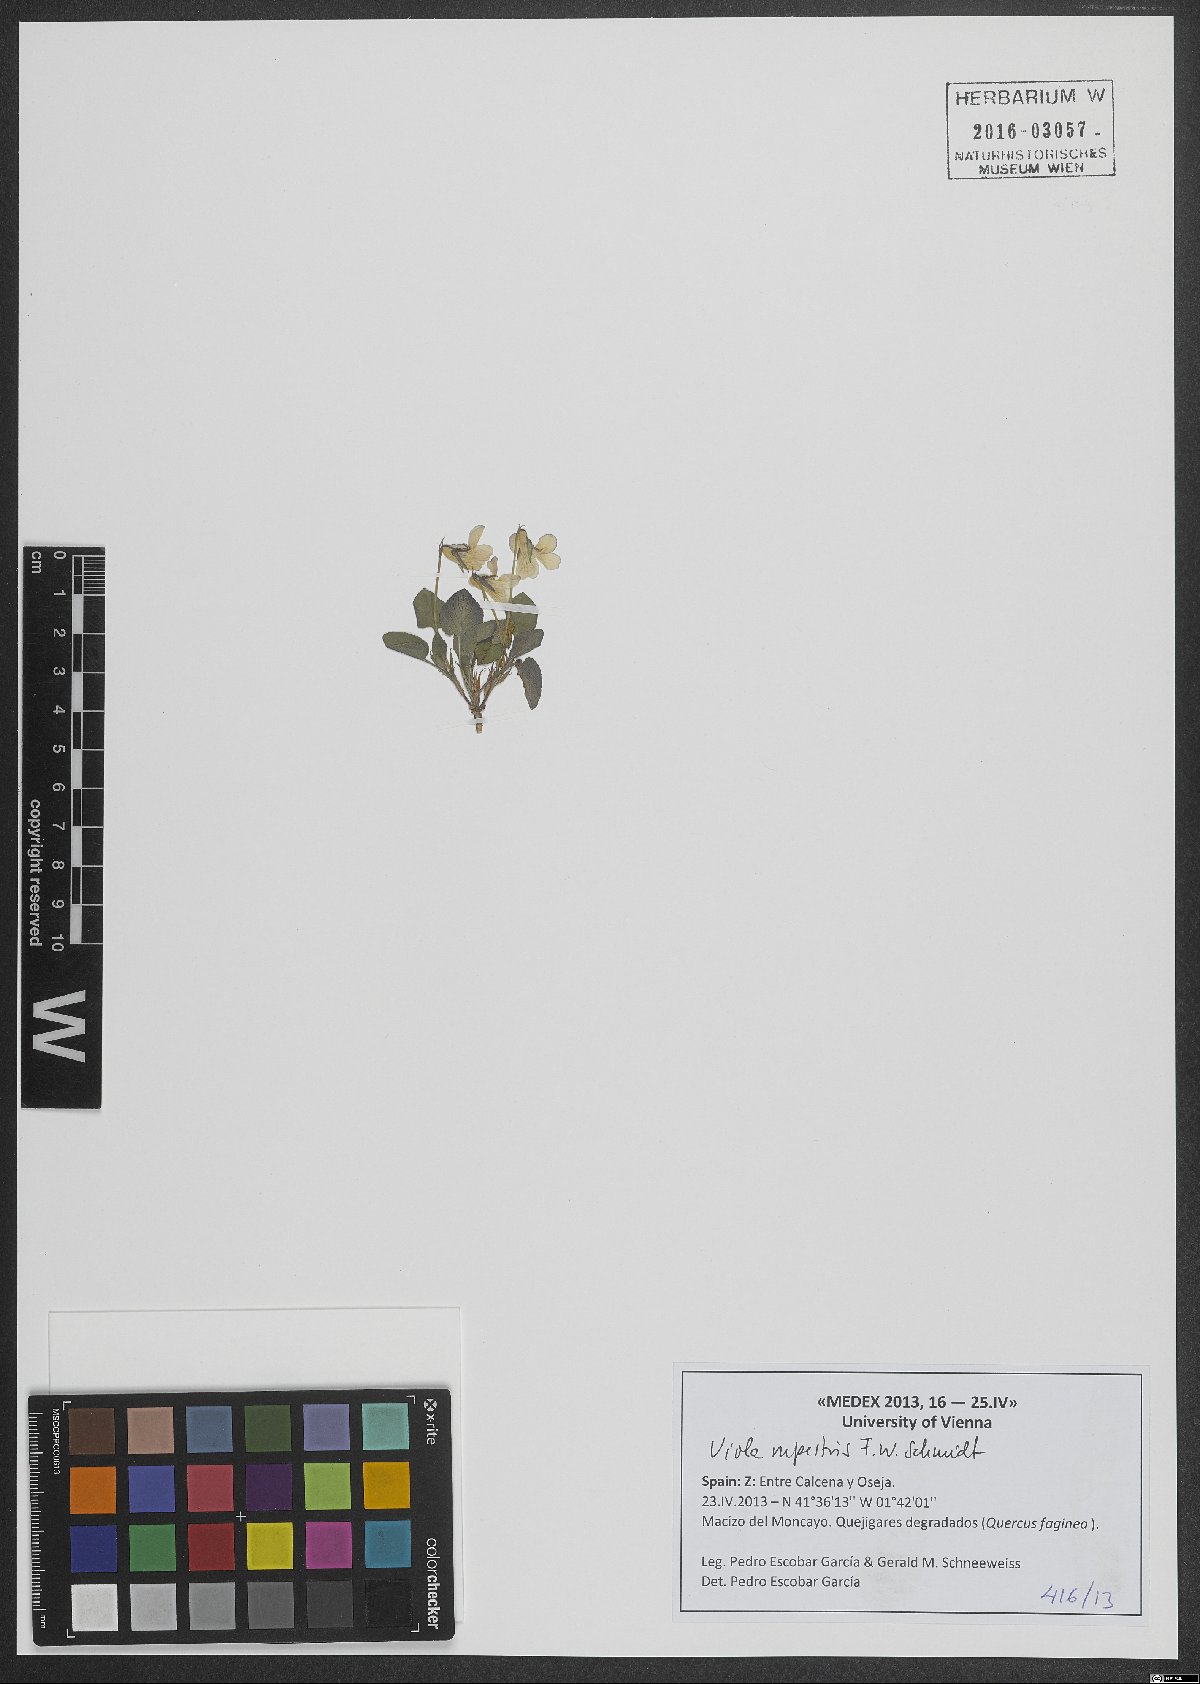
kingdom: Plantae
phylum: Tracheophyta
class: Magnoliopsida
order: Malpighiales
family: Violaceae
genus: Viola
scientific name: Viola rupestris
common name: Teesdale violet
